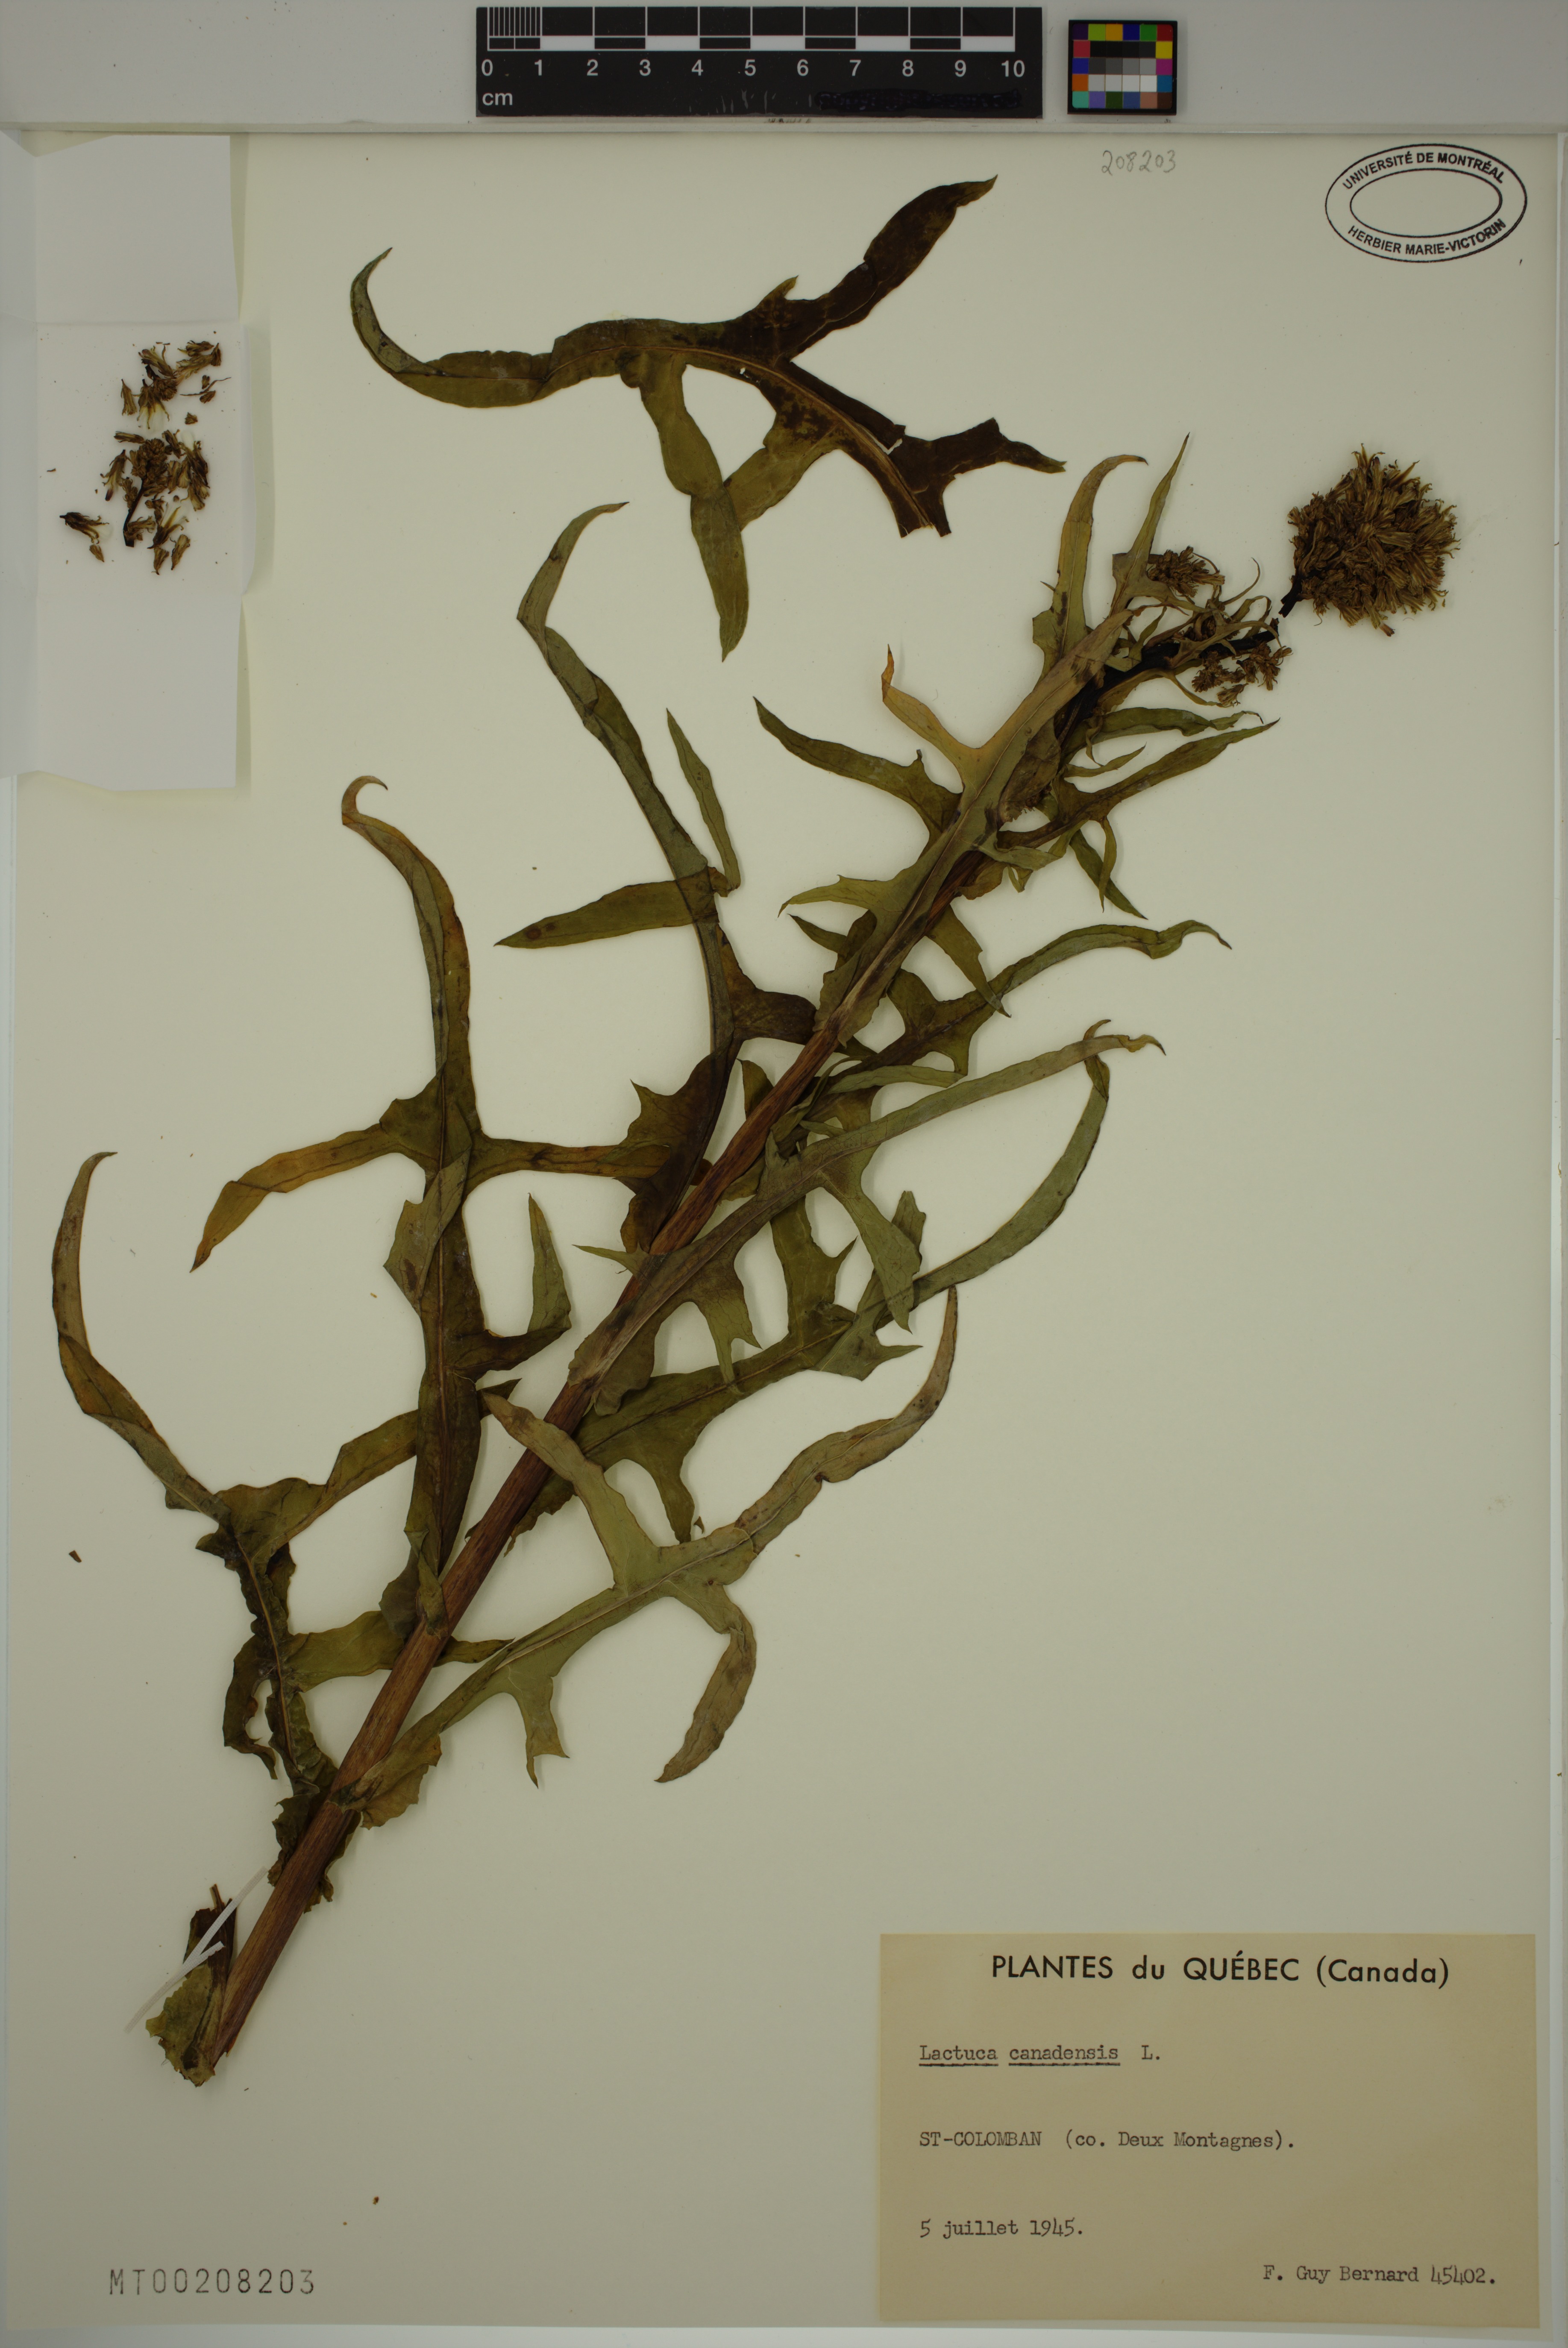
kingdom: Plantae
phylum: Tracheophyta
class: Magnoliopsida
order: Asterales
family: Asteraceae
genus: Lactuca
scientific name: Lactuca canadensis
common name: Canada lettuce
